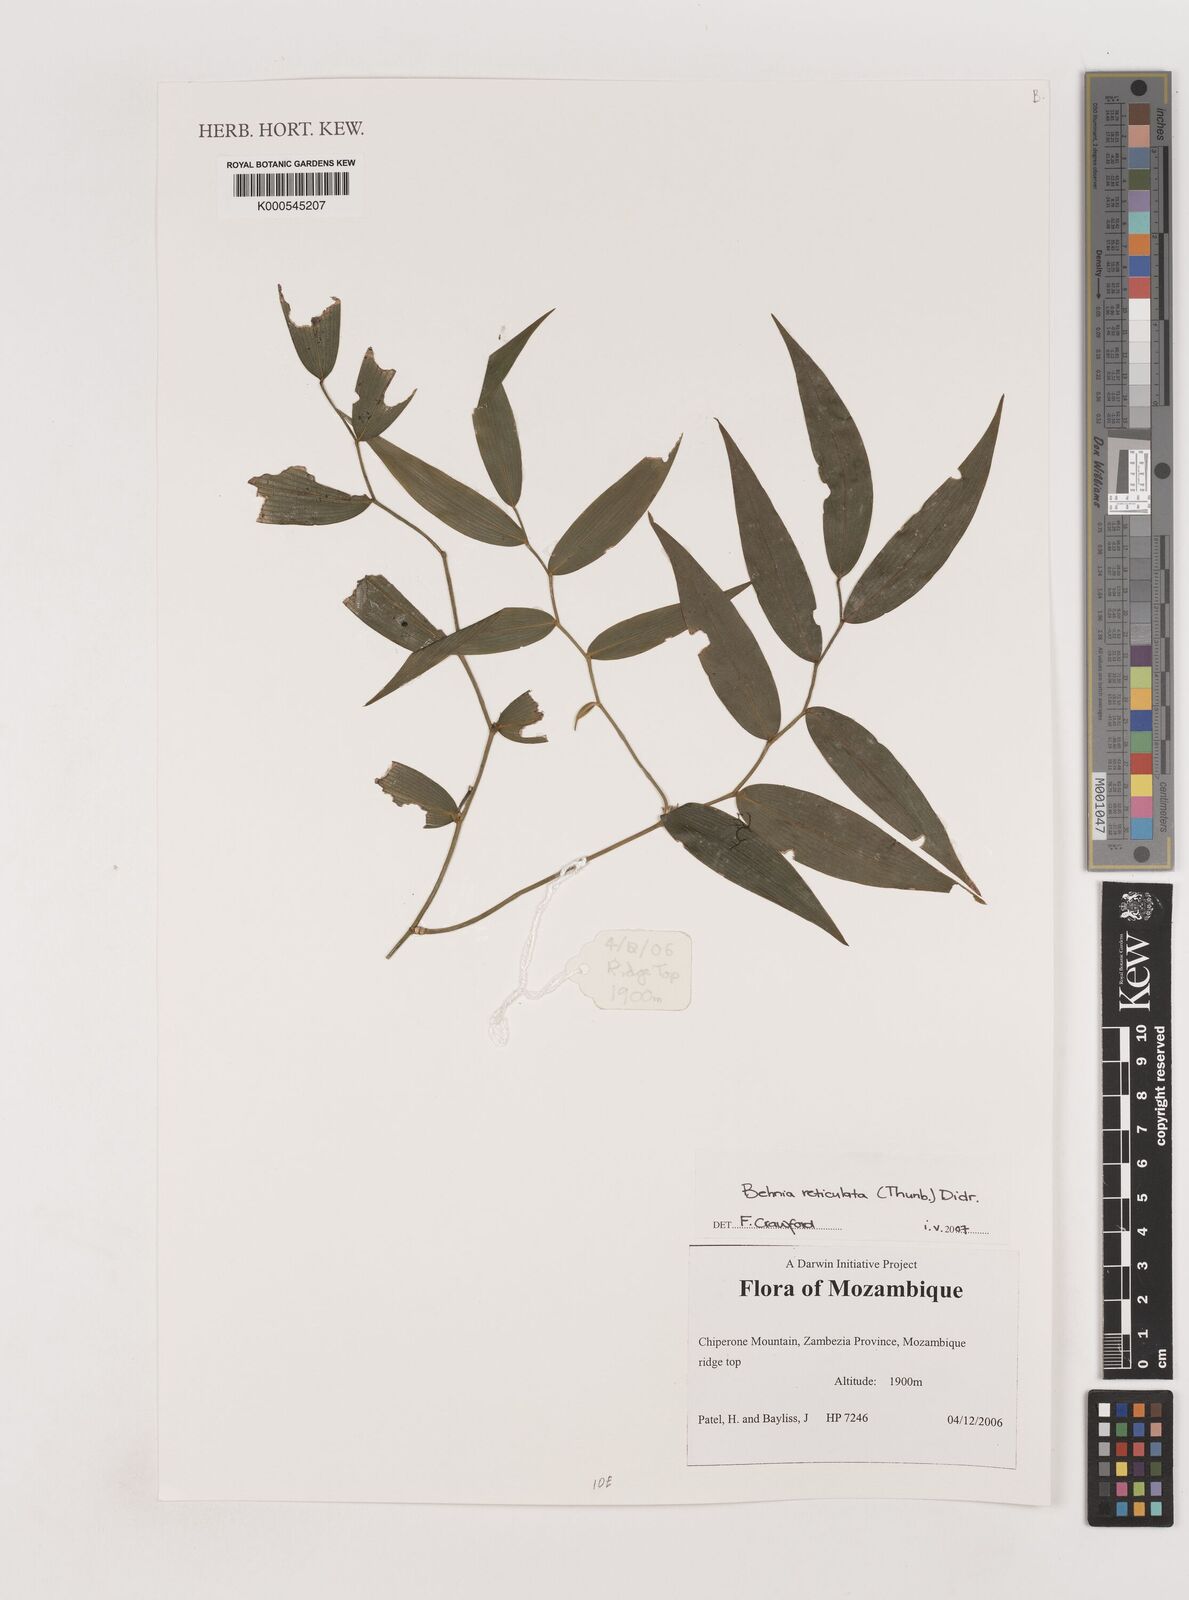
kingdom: Plantae
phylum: Tracheophyta
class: Liliopsida
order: Asparagales
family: Asparagaceae
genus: Behnia
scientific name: Behnia reticulata
